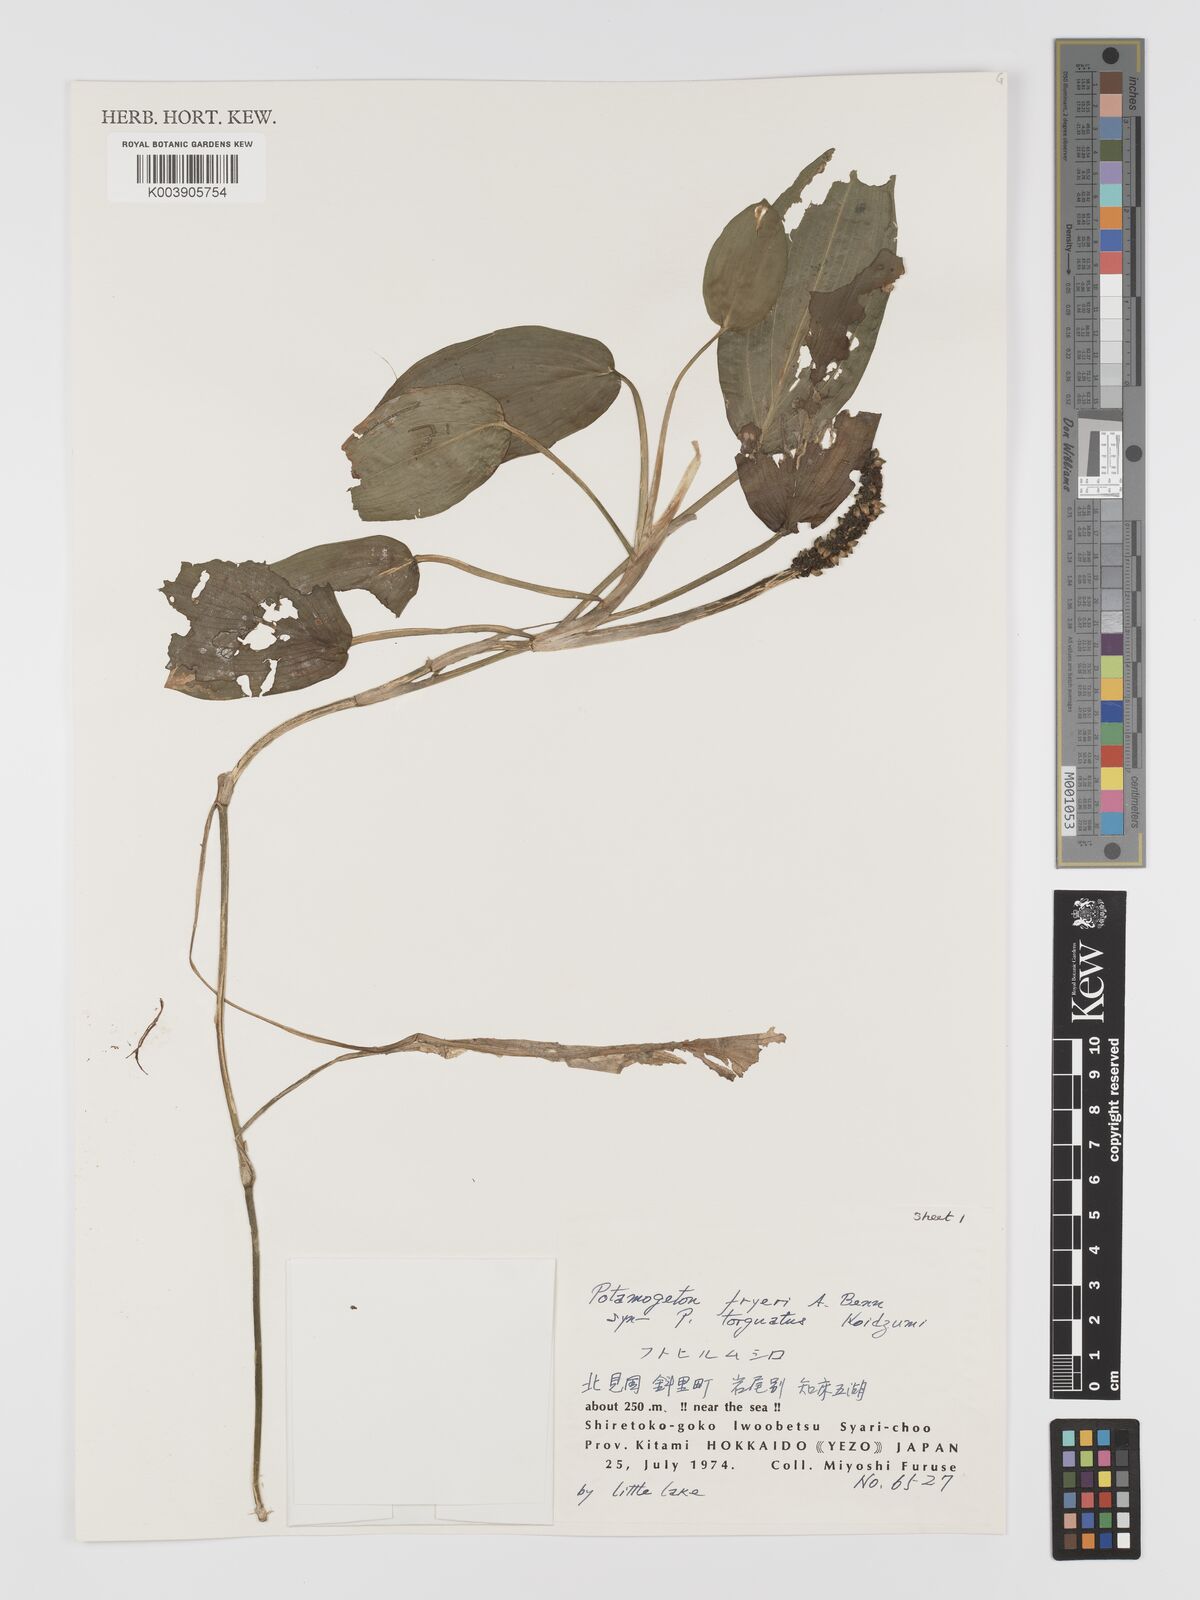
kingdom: Plantae
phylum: Tracheophyta
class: Liliopsida
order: Alismatales
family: Potamogetonaceae
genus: Potamogeton
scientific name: Potamogeton fryeri
